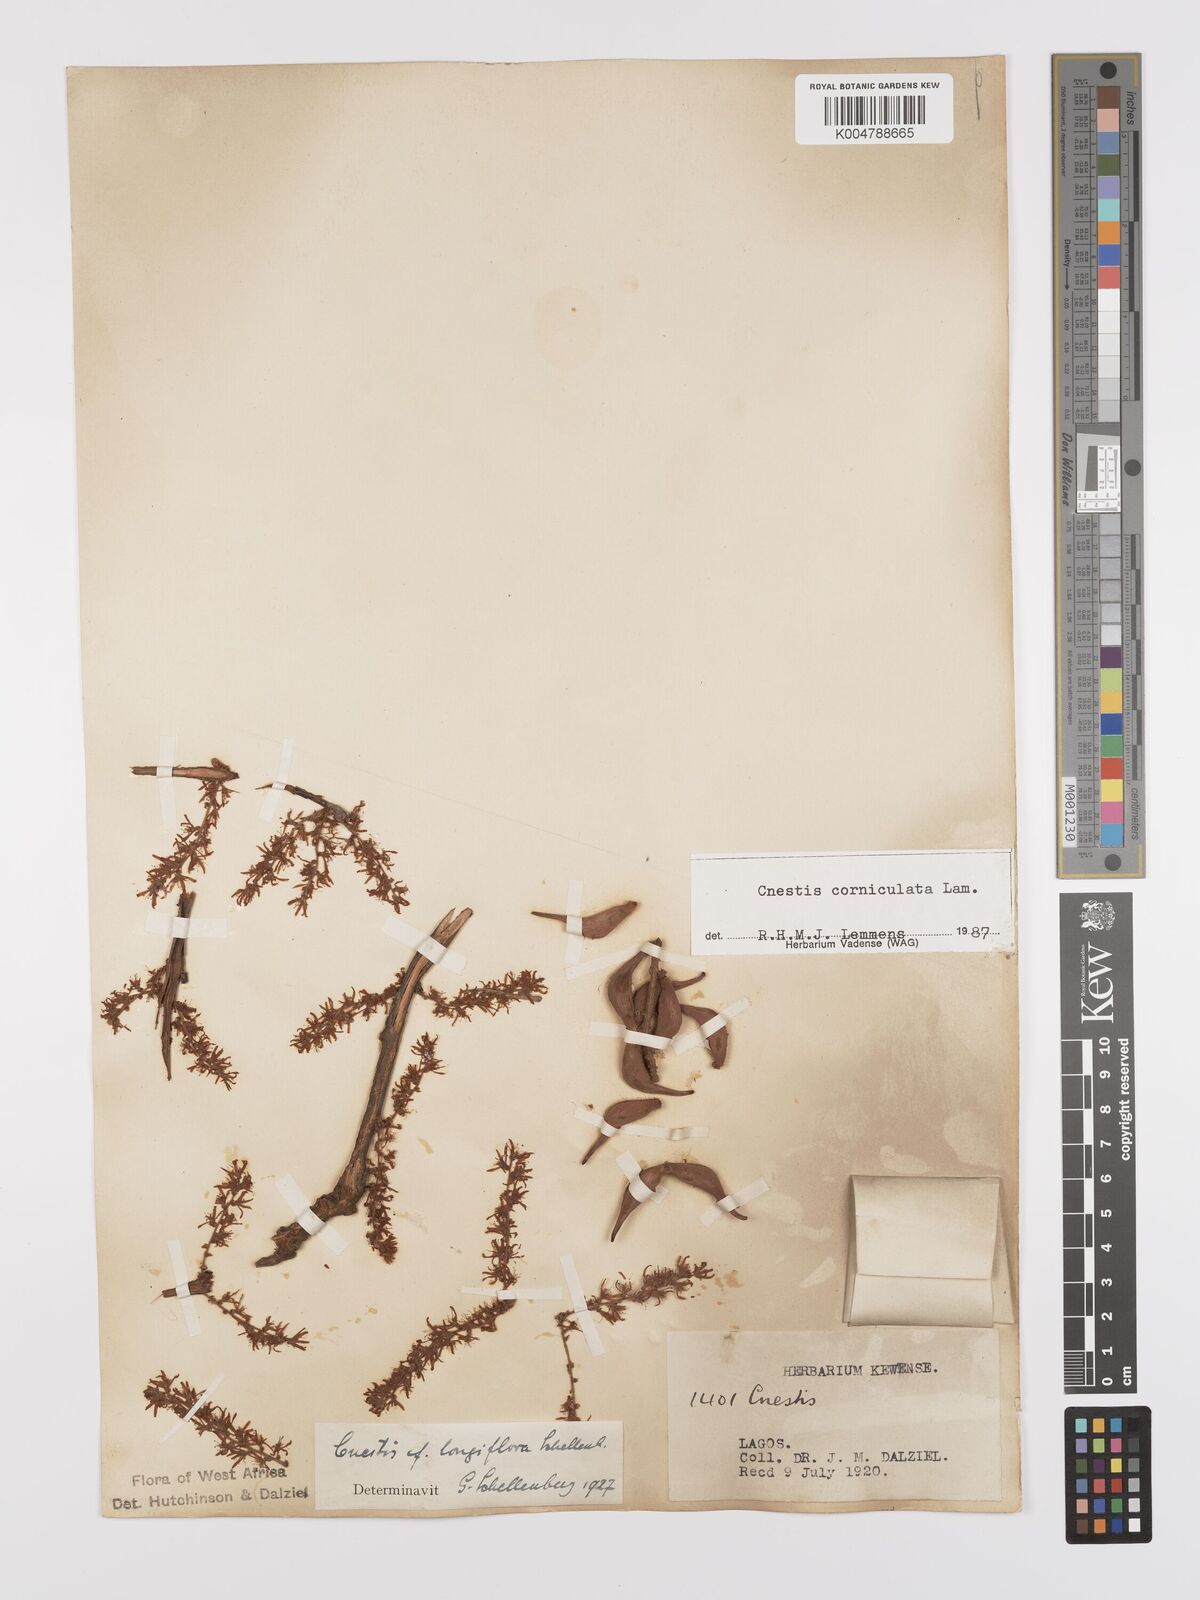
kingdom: Plantae
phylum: Tracheophyta
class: Magnoliopsida
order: Oxalidales
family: Connaraceae
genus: Cnestis
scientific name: Cnestis corniculata
